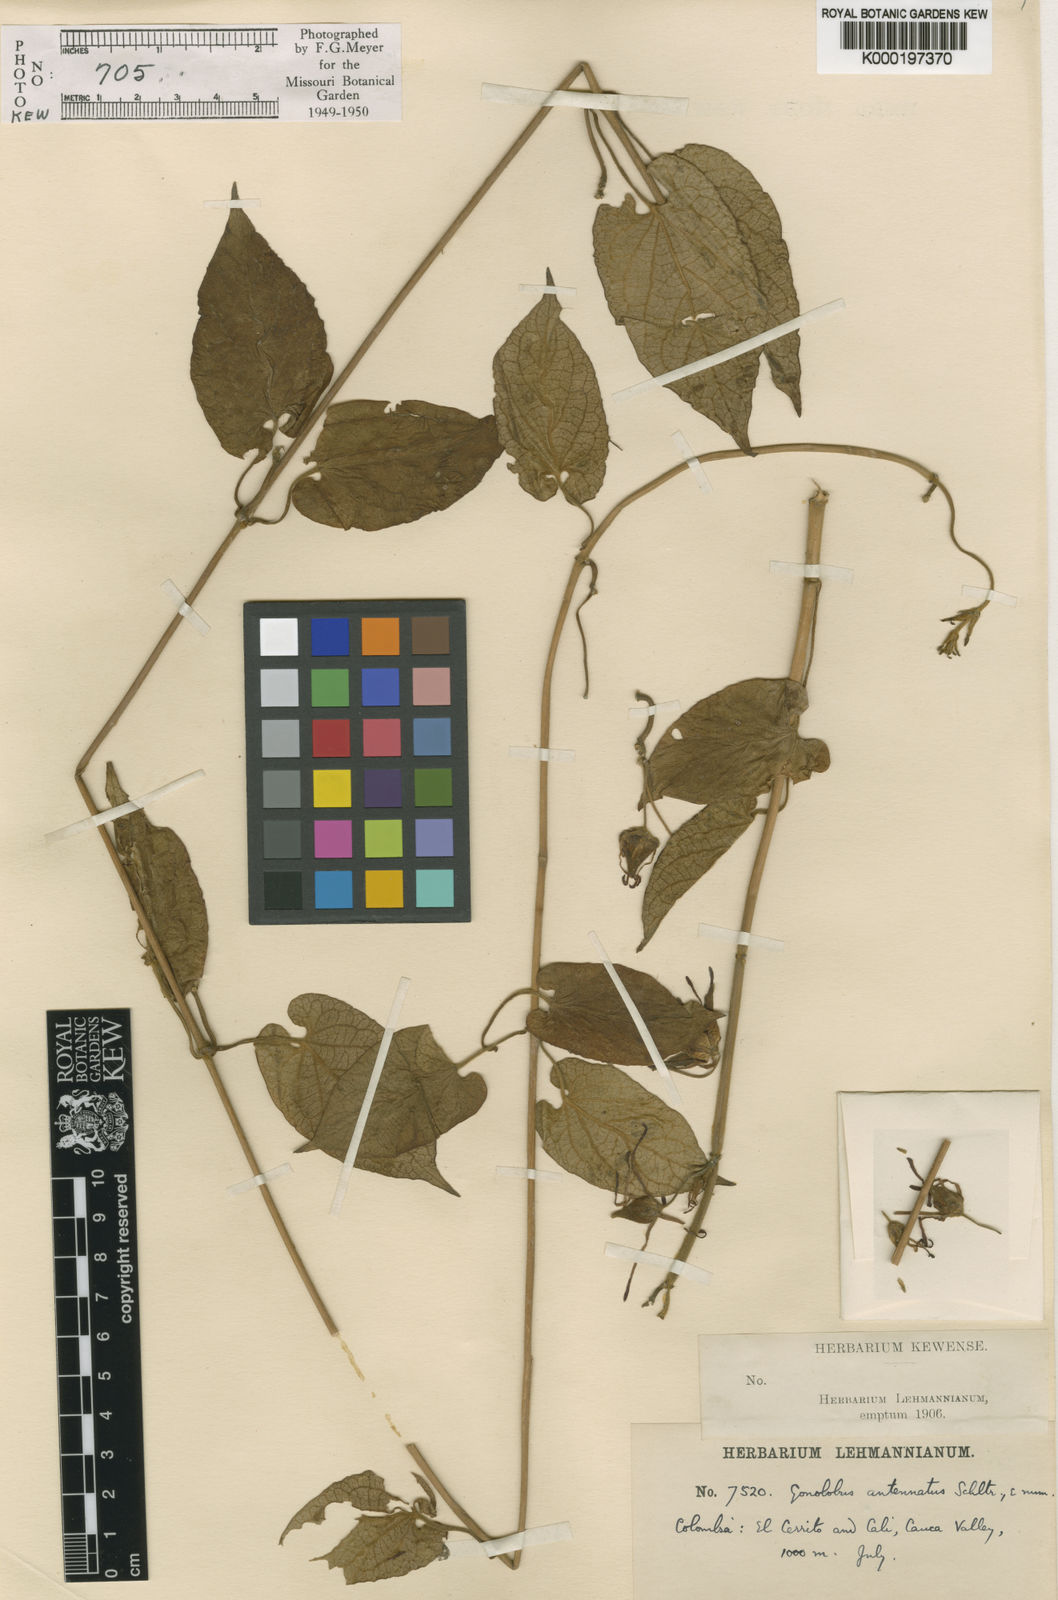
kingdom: Plantae
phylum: Tracheophyta
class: Magnoliopsida
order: Gentianales
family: Apocynaceae
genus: Gonolobus
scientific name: Gonolobus antennatus
